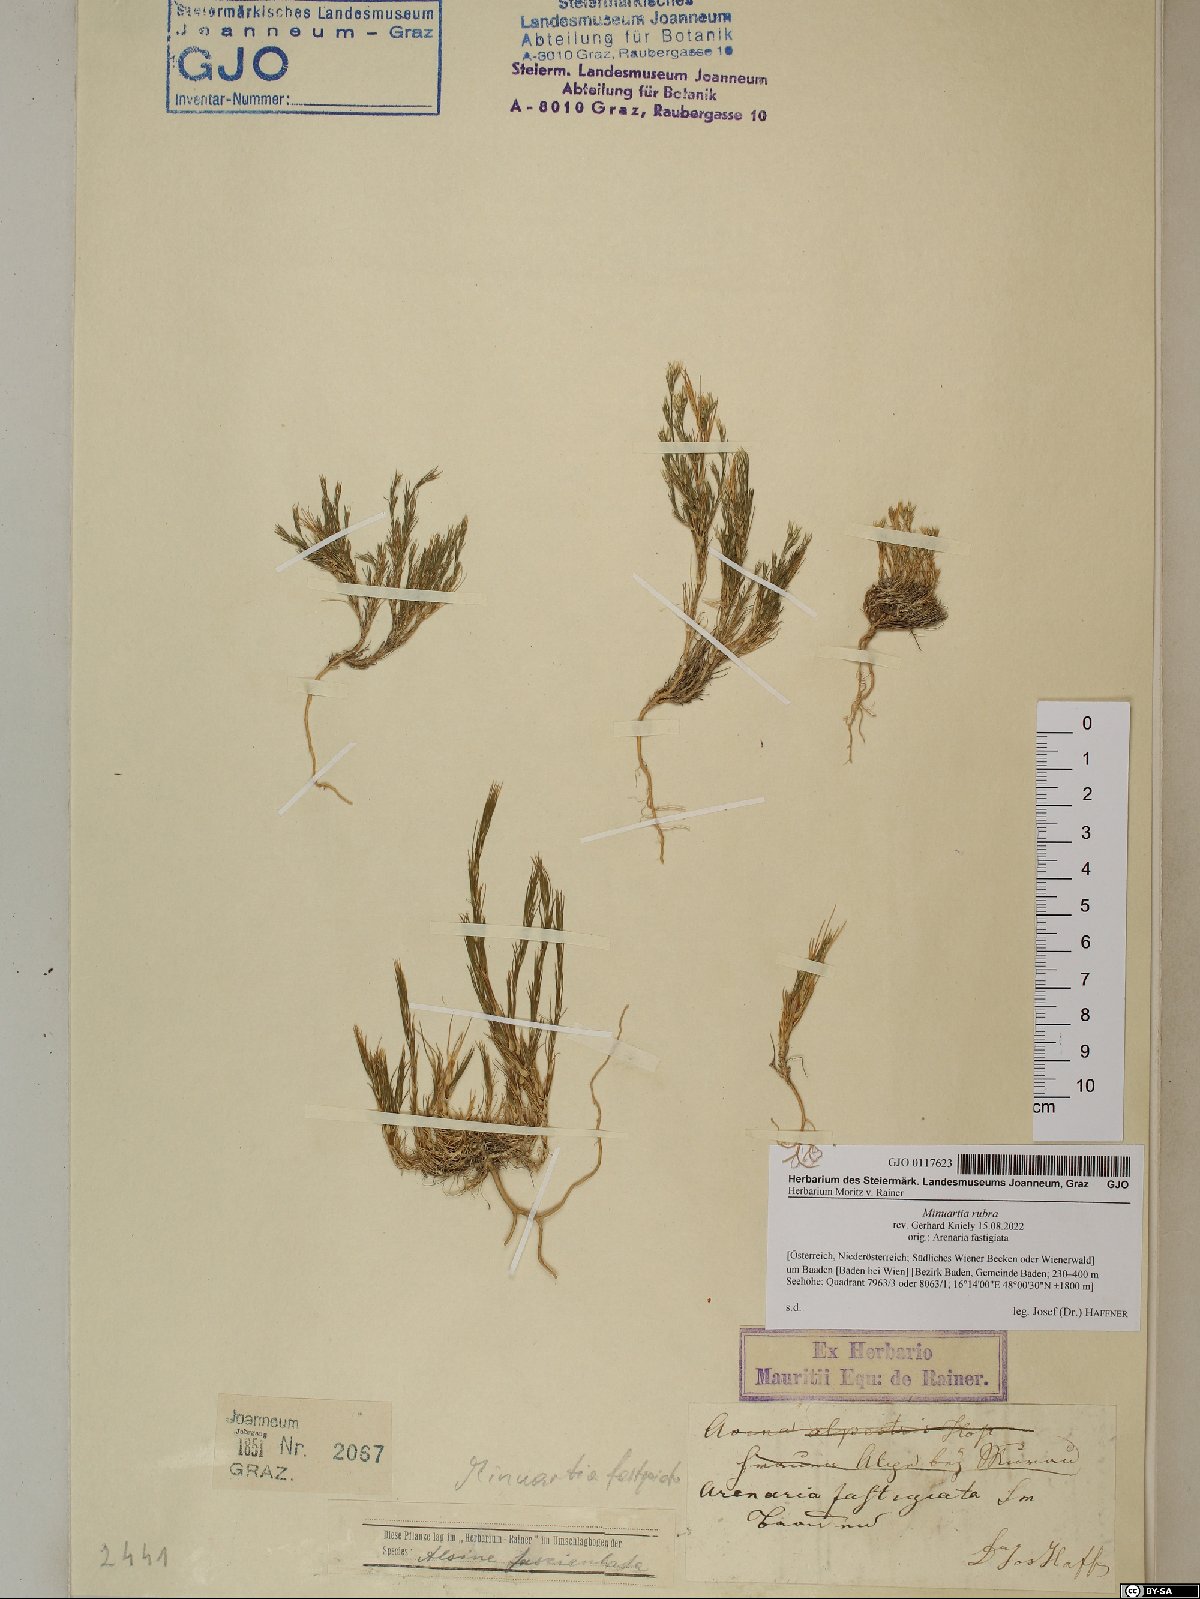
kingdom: Plantae
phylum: Tracheophyta
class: Magnoliopsida
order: Caryophyllales
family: Caryophyllaceae
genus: Minuartia
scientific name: Minuartia mucronata
